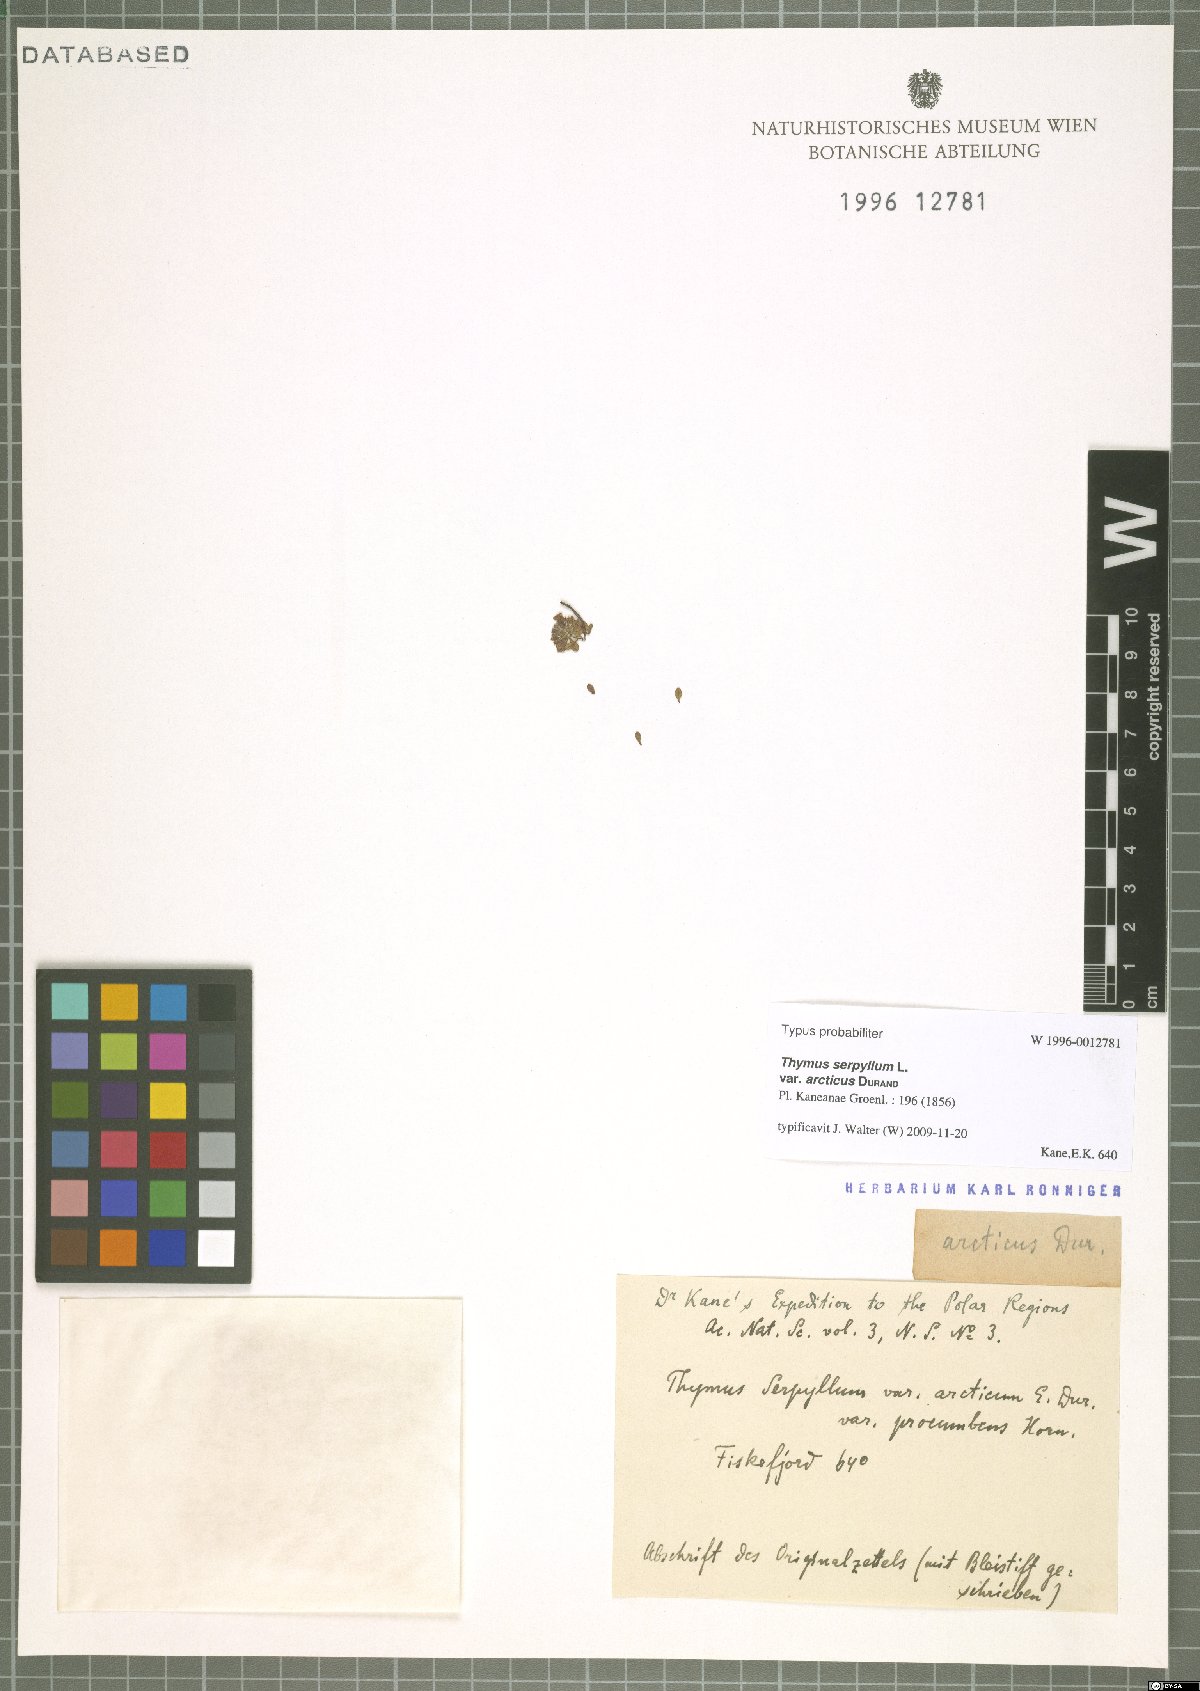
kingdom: Plantae
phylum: Tracheophyta
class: Magnoliopsida
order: Lamiales
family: Lamiaceae
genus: Thymus
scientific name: Thymus praecox
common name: Wild thyme
